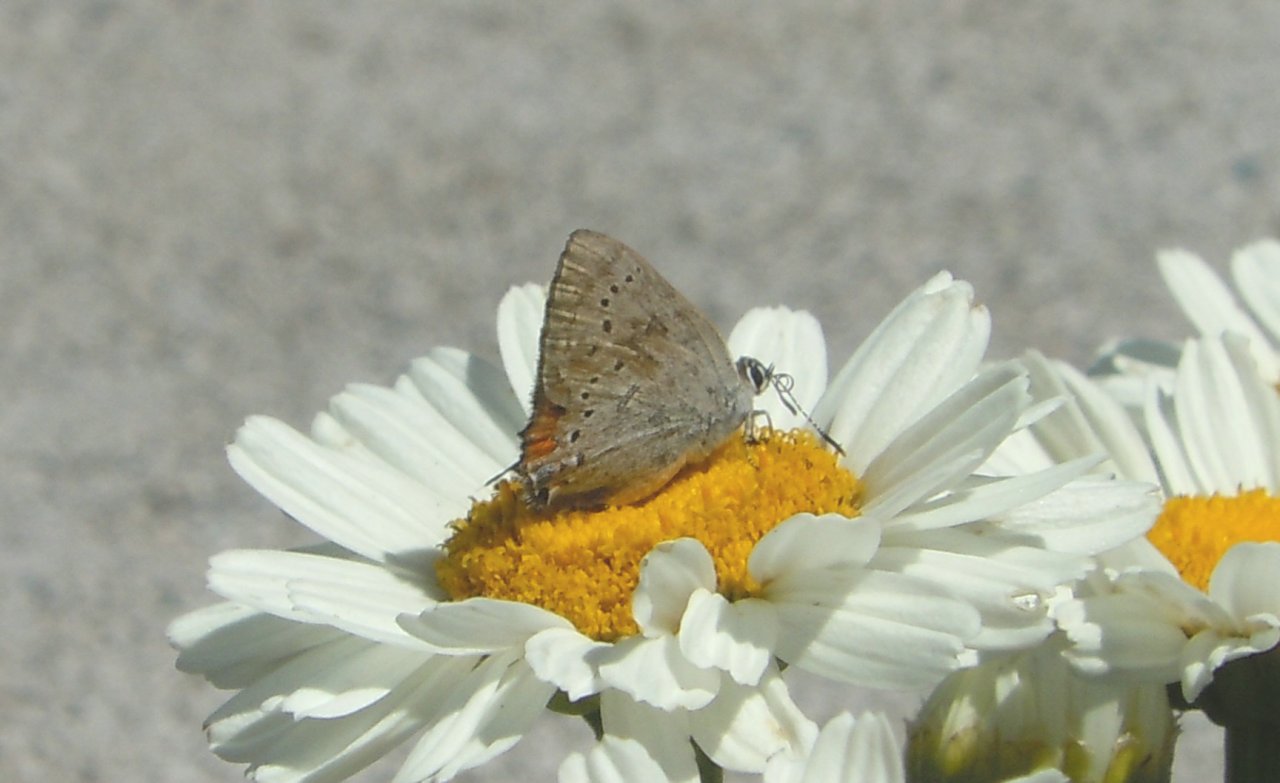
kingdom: Animalia
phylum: Arthropoda
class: Insecta
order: Lepidoptera
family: Lycaenidae
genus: Strymon
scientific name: Strymon sylvinus
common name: Sylvan Hairstreak
